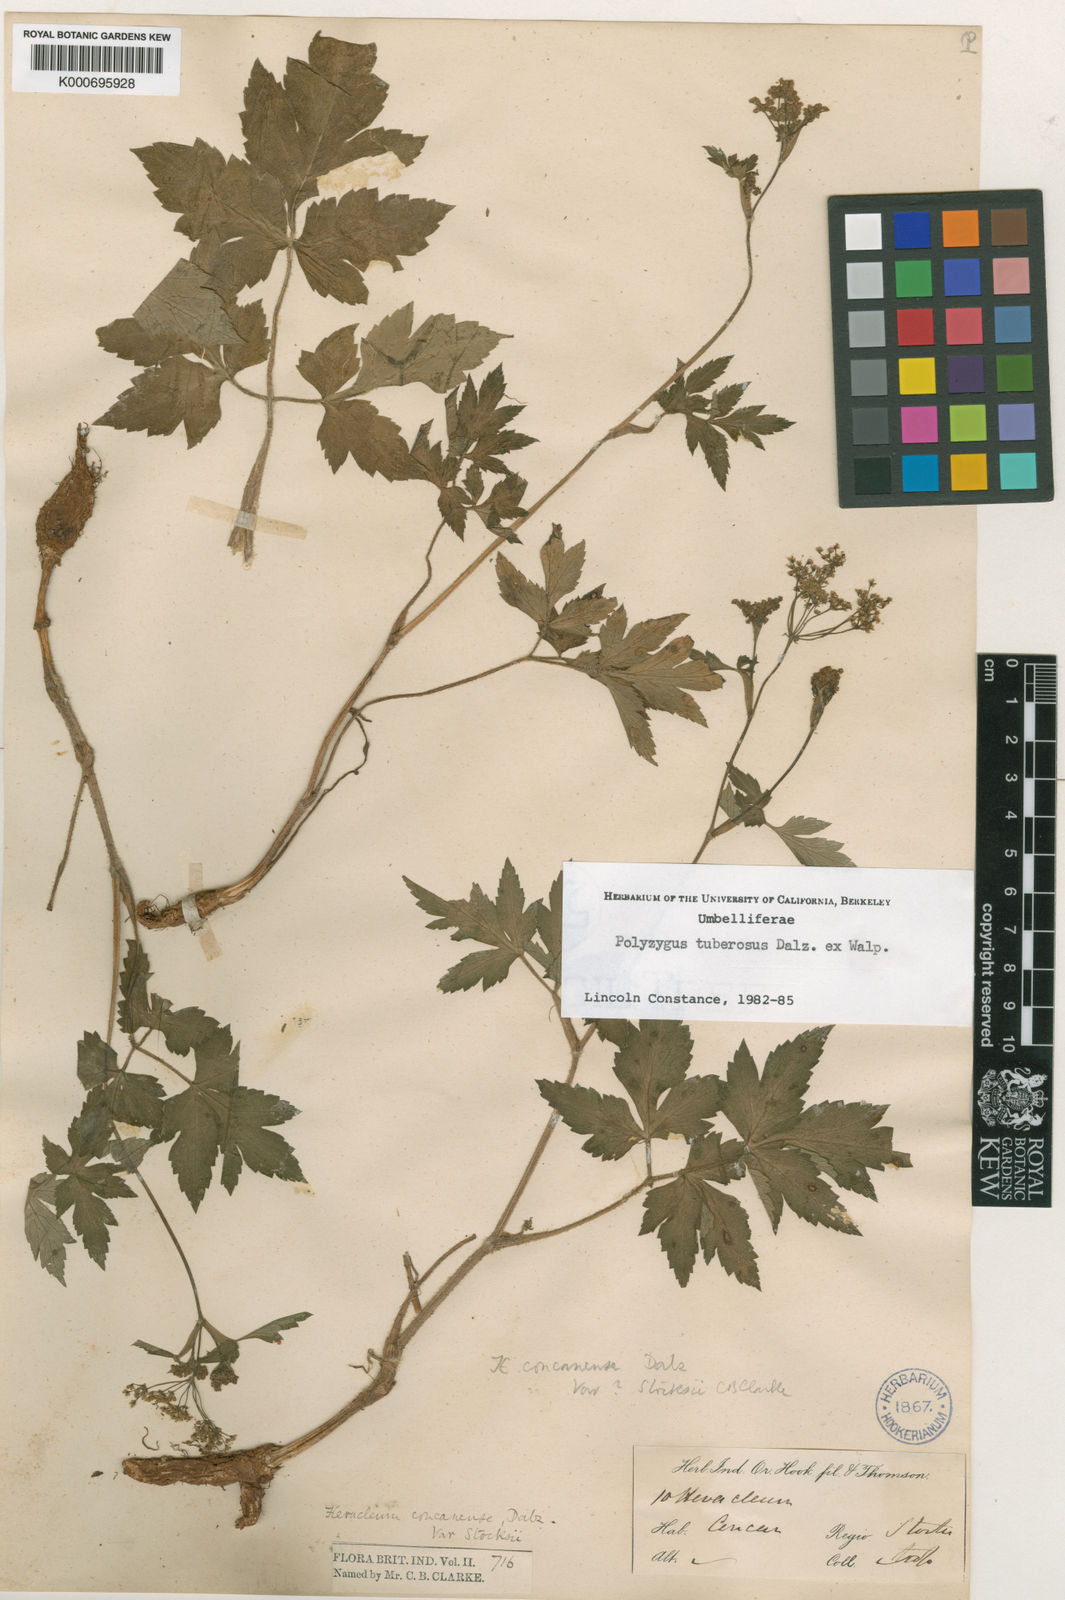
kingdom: Plantae
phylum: Tracheophyta
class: Magnoliopsida
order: Apiales
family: Apiaceae
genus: Polyzygus
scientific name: Polyzygus
